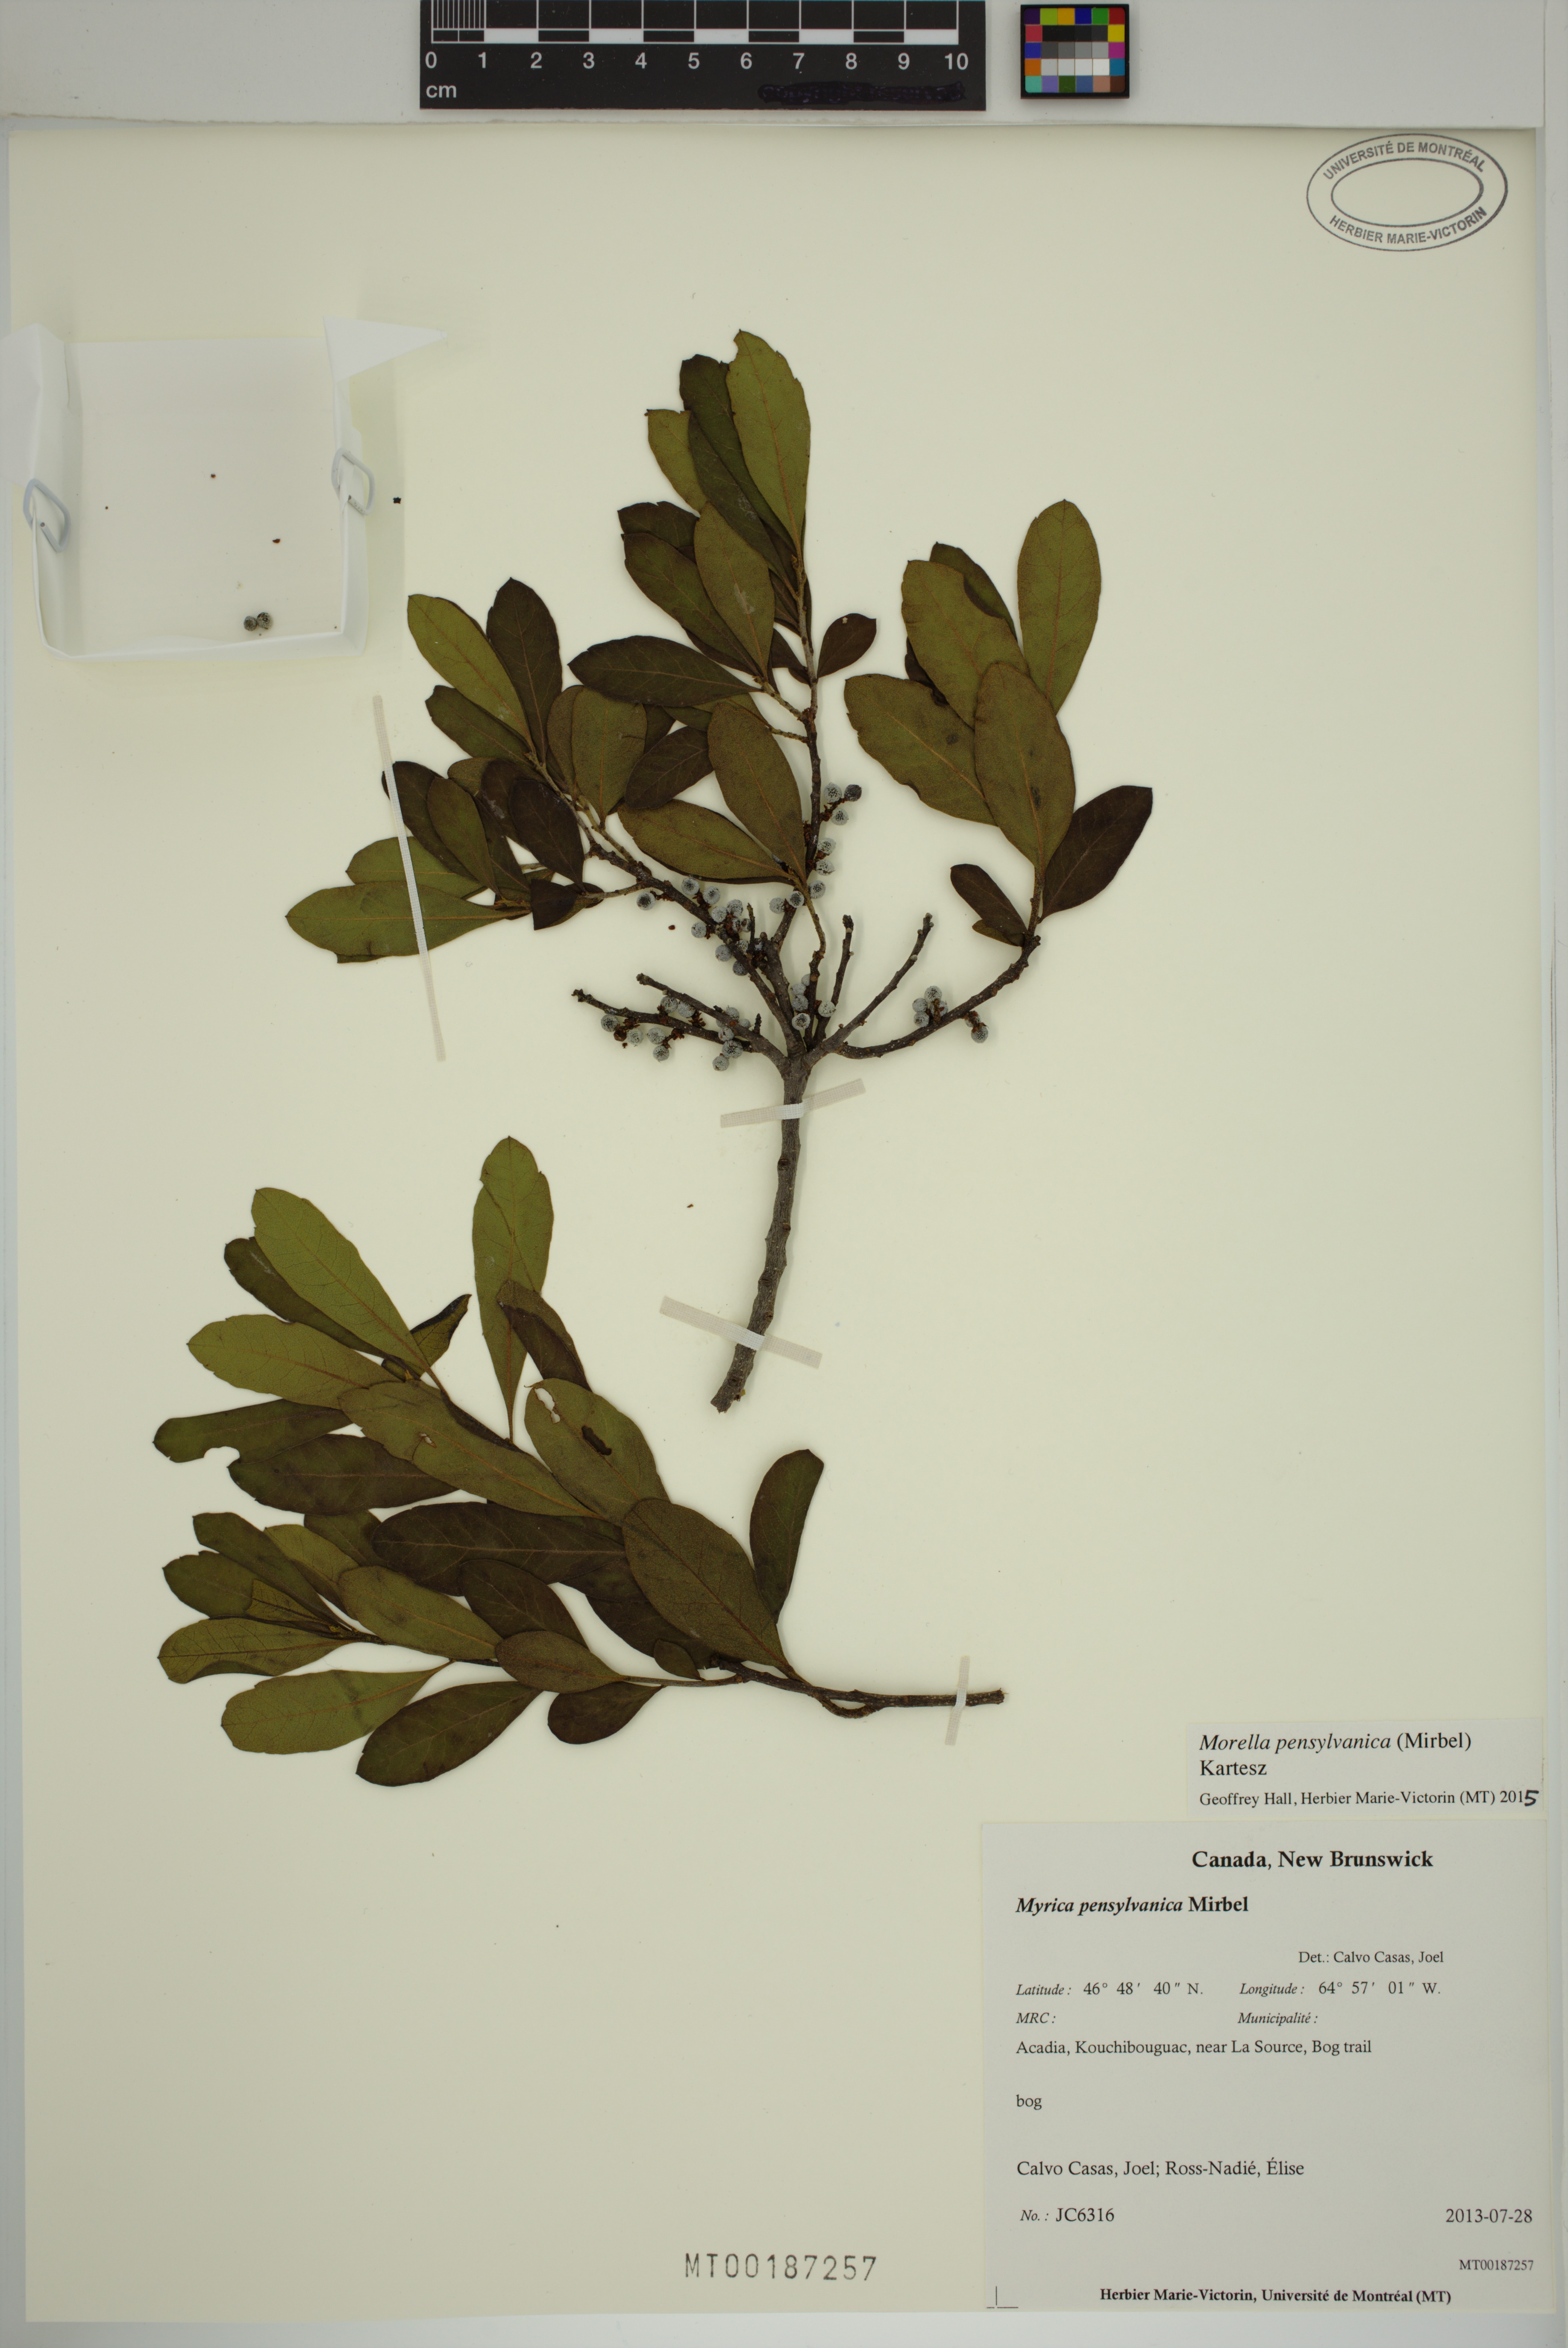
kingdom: Plantae
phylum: Tracheophyta
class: Magnoliopsida
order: Fagales
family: Myricaceae
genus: Morella
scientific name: Morella pensylvanica
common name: Northern bayberry
